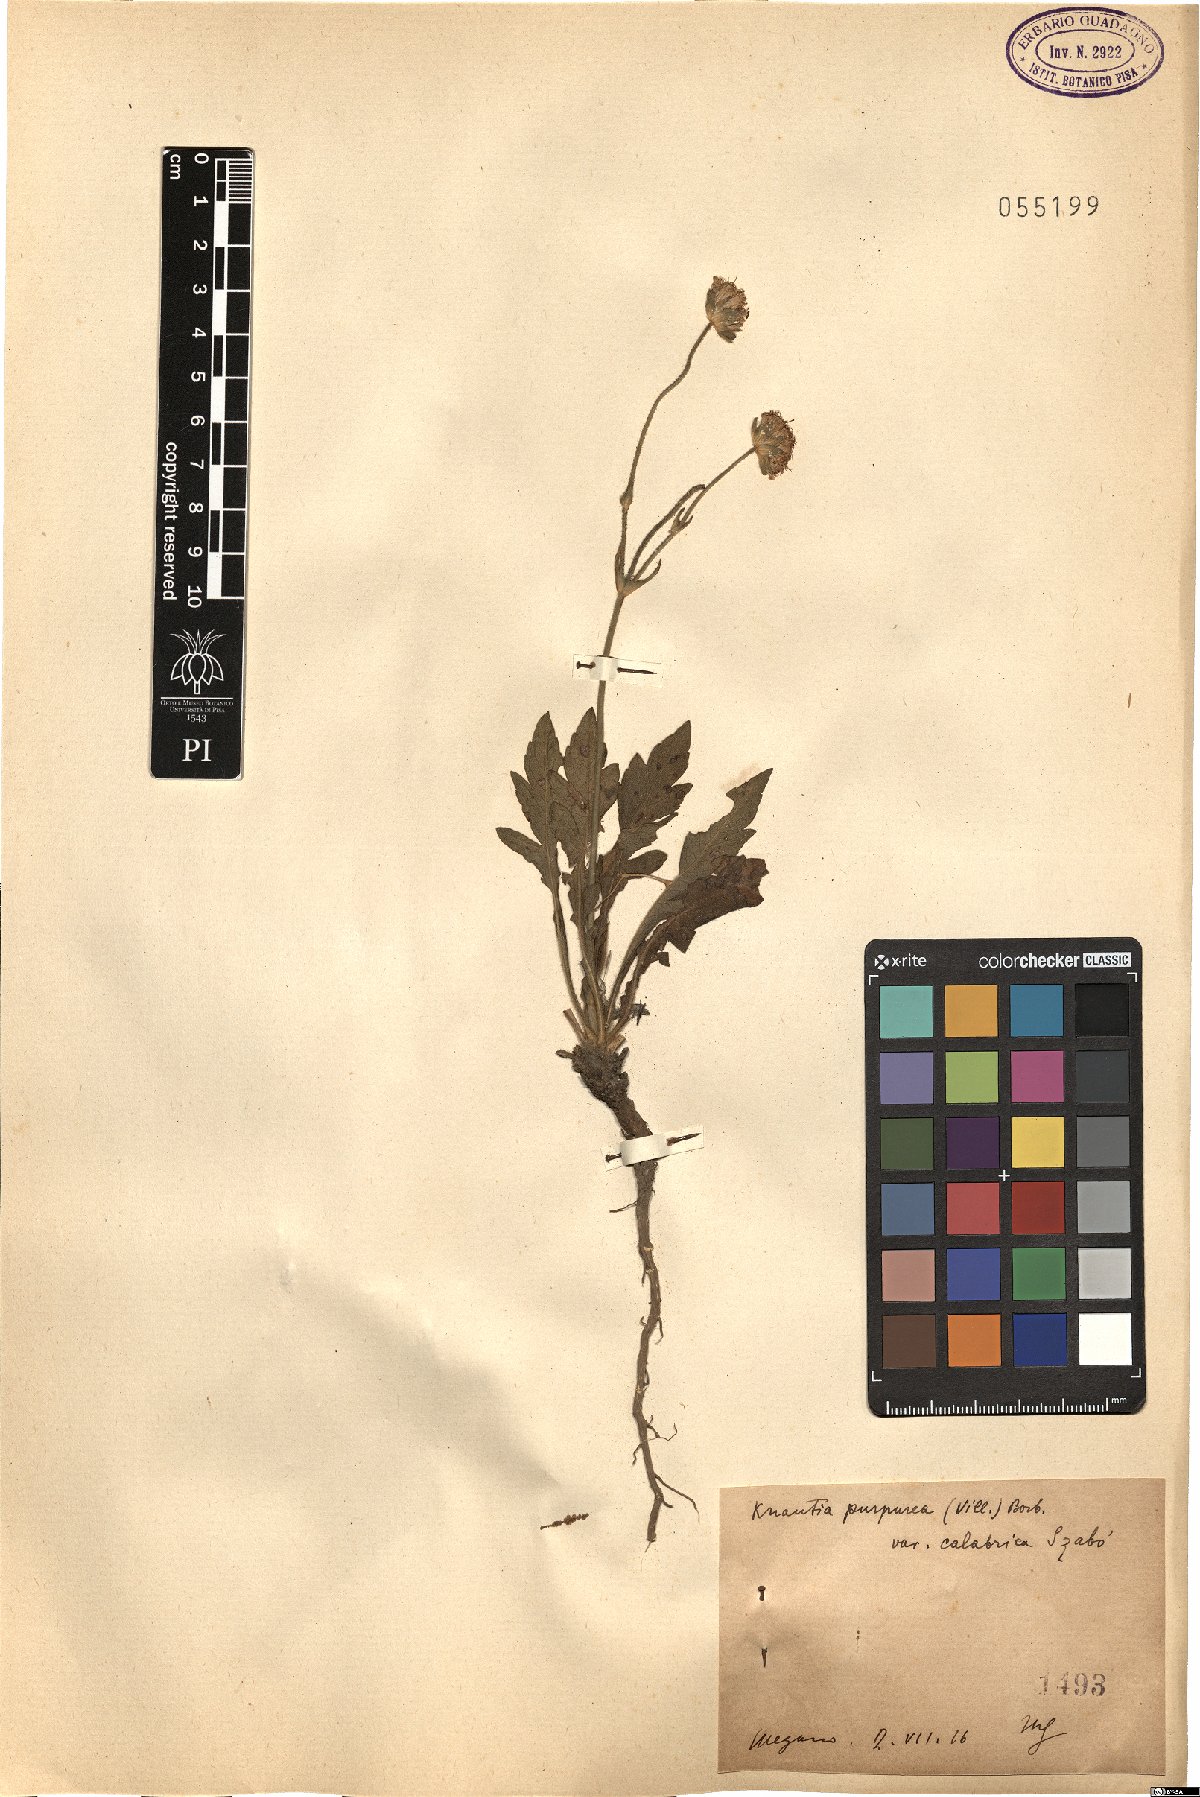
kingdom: Plantae
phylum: Tracheophyta
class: Magnoliopsida
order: Dipsacales
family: Caprifoliaceae
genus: Knautia
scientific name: Knautia collina
